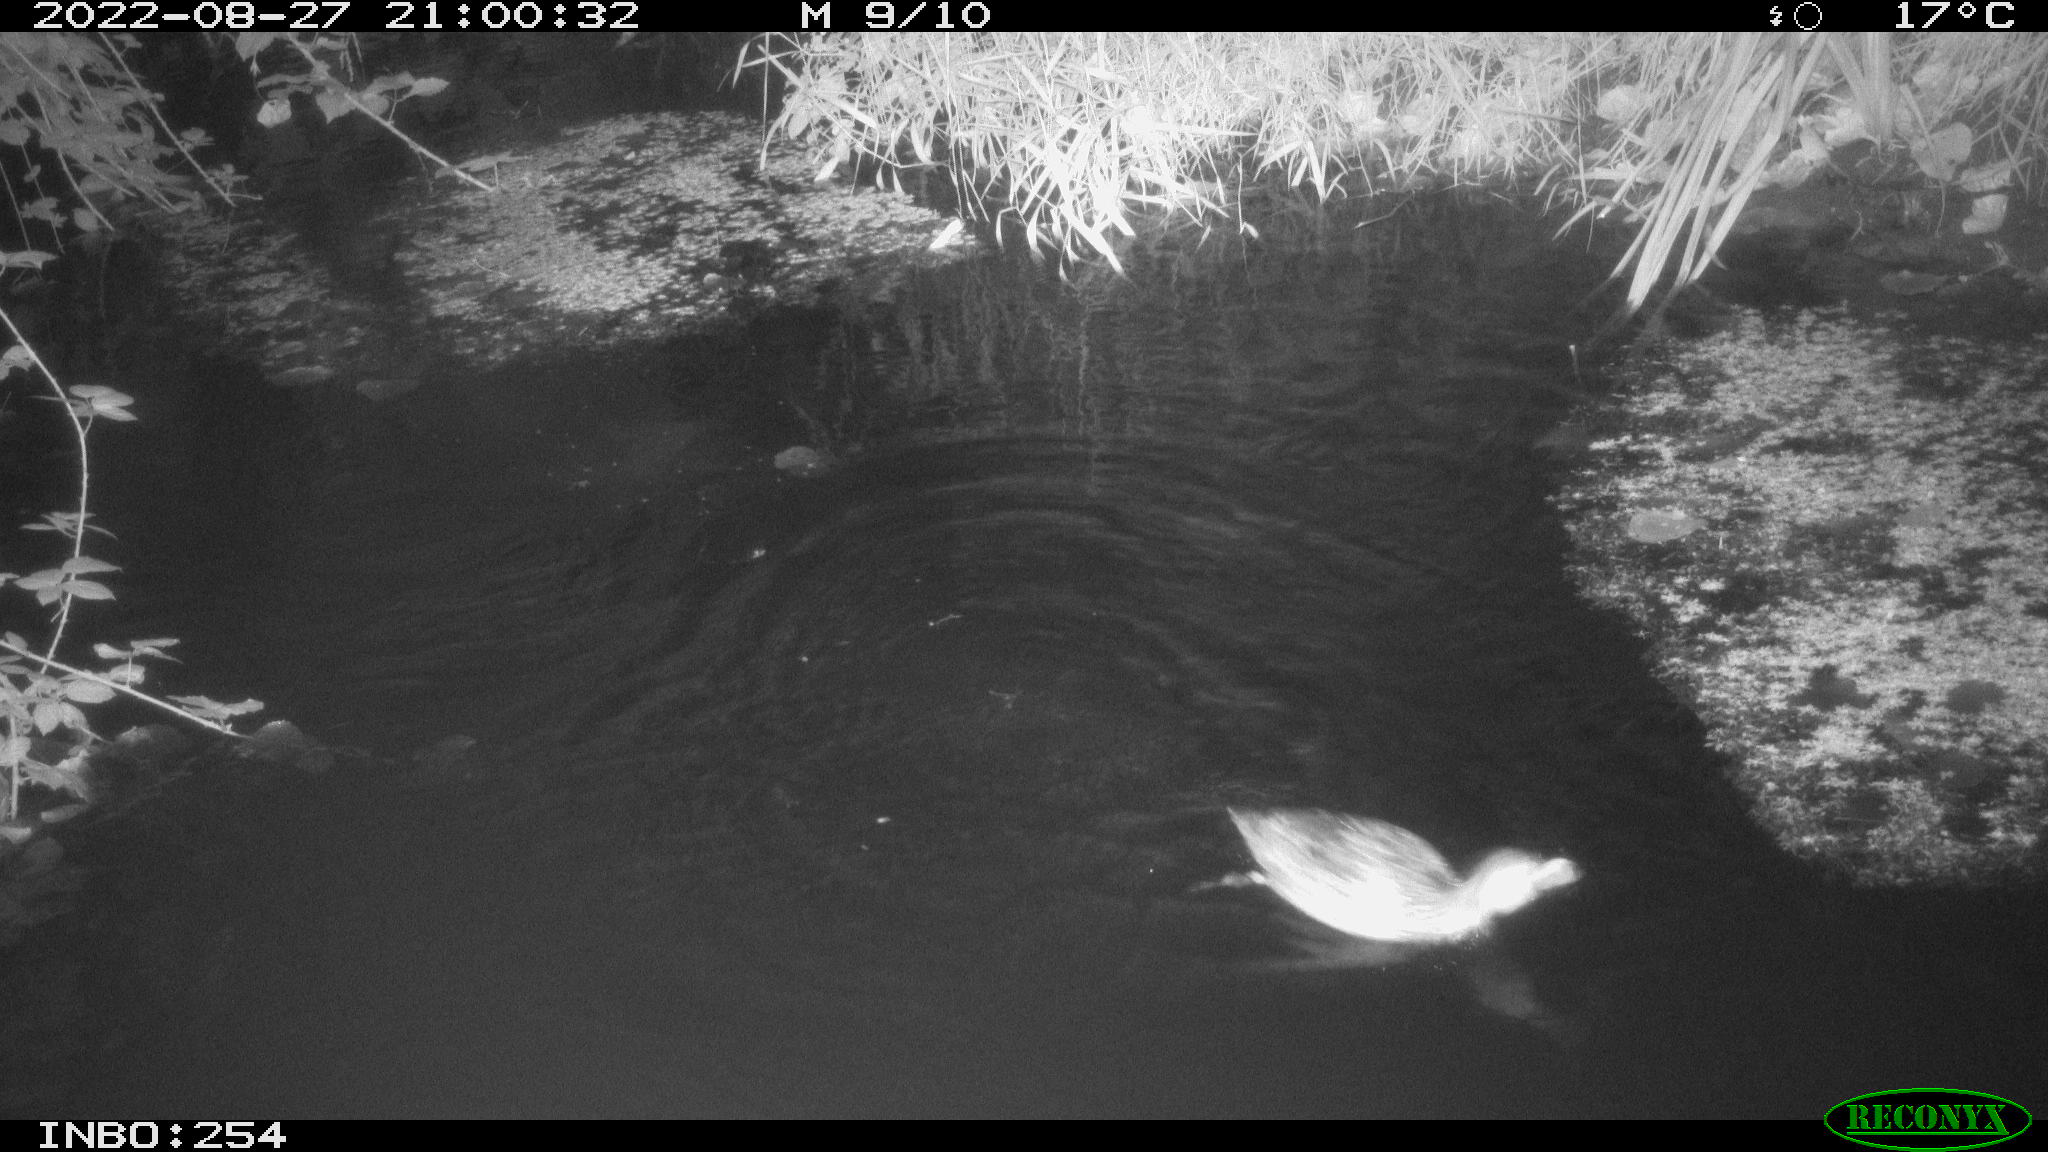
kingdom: Animalia
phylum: Chordata
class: Aves
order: Anseriformes
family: Anatidae
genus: Anas
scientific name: Anas platyrhynchos
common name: Mallard
